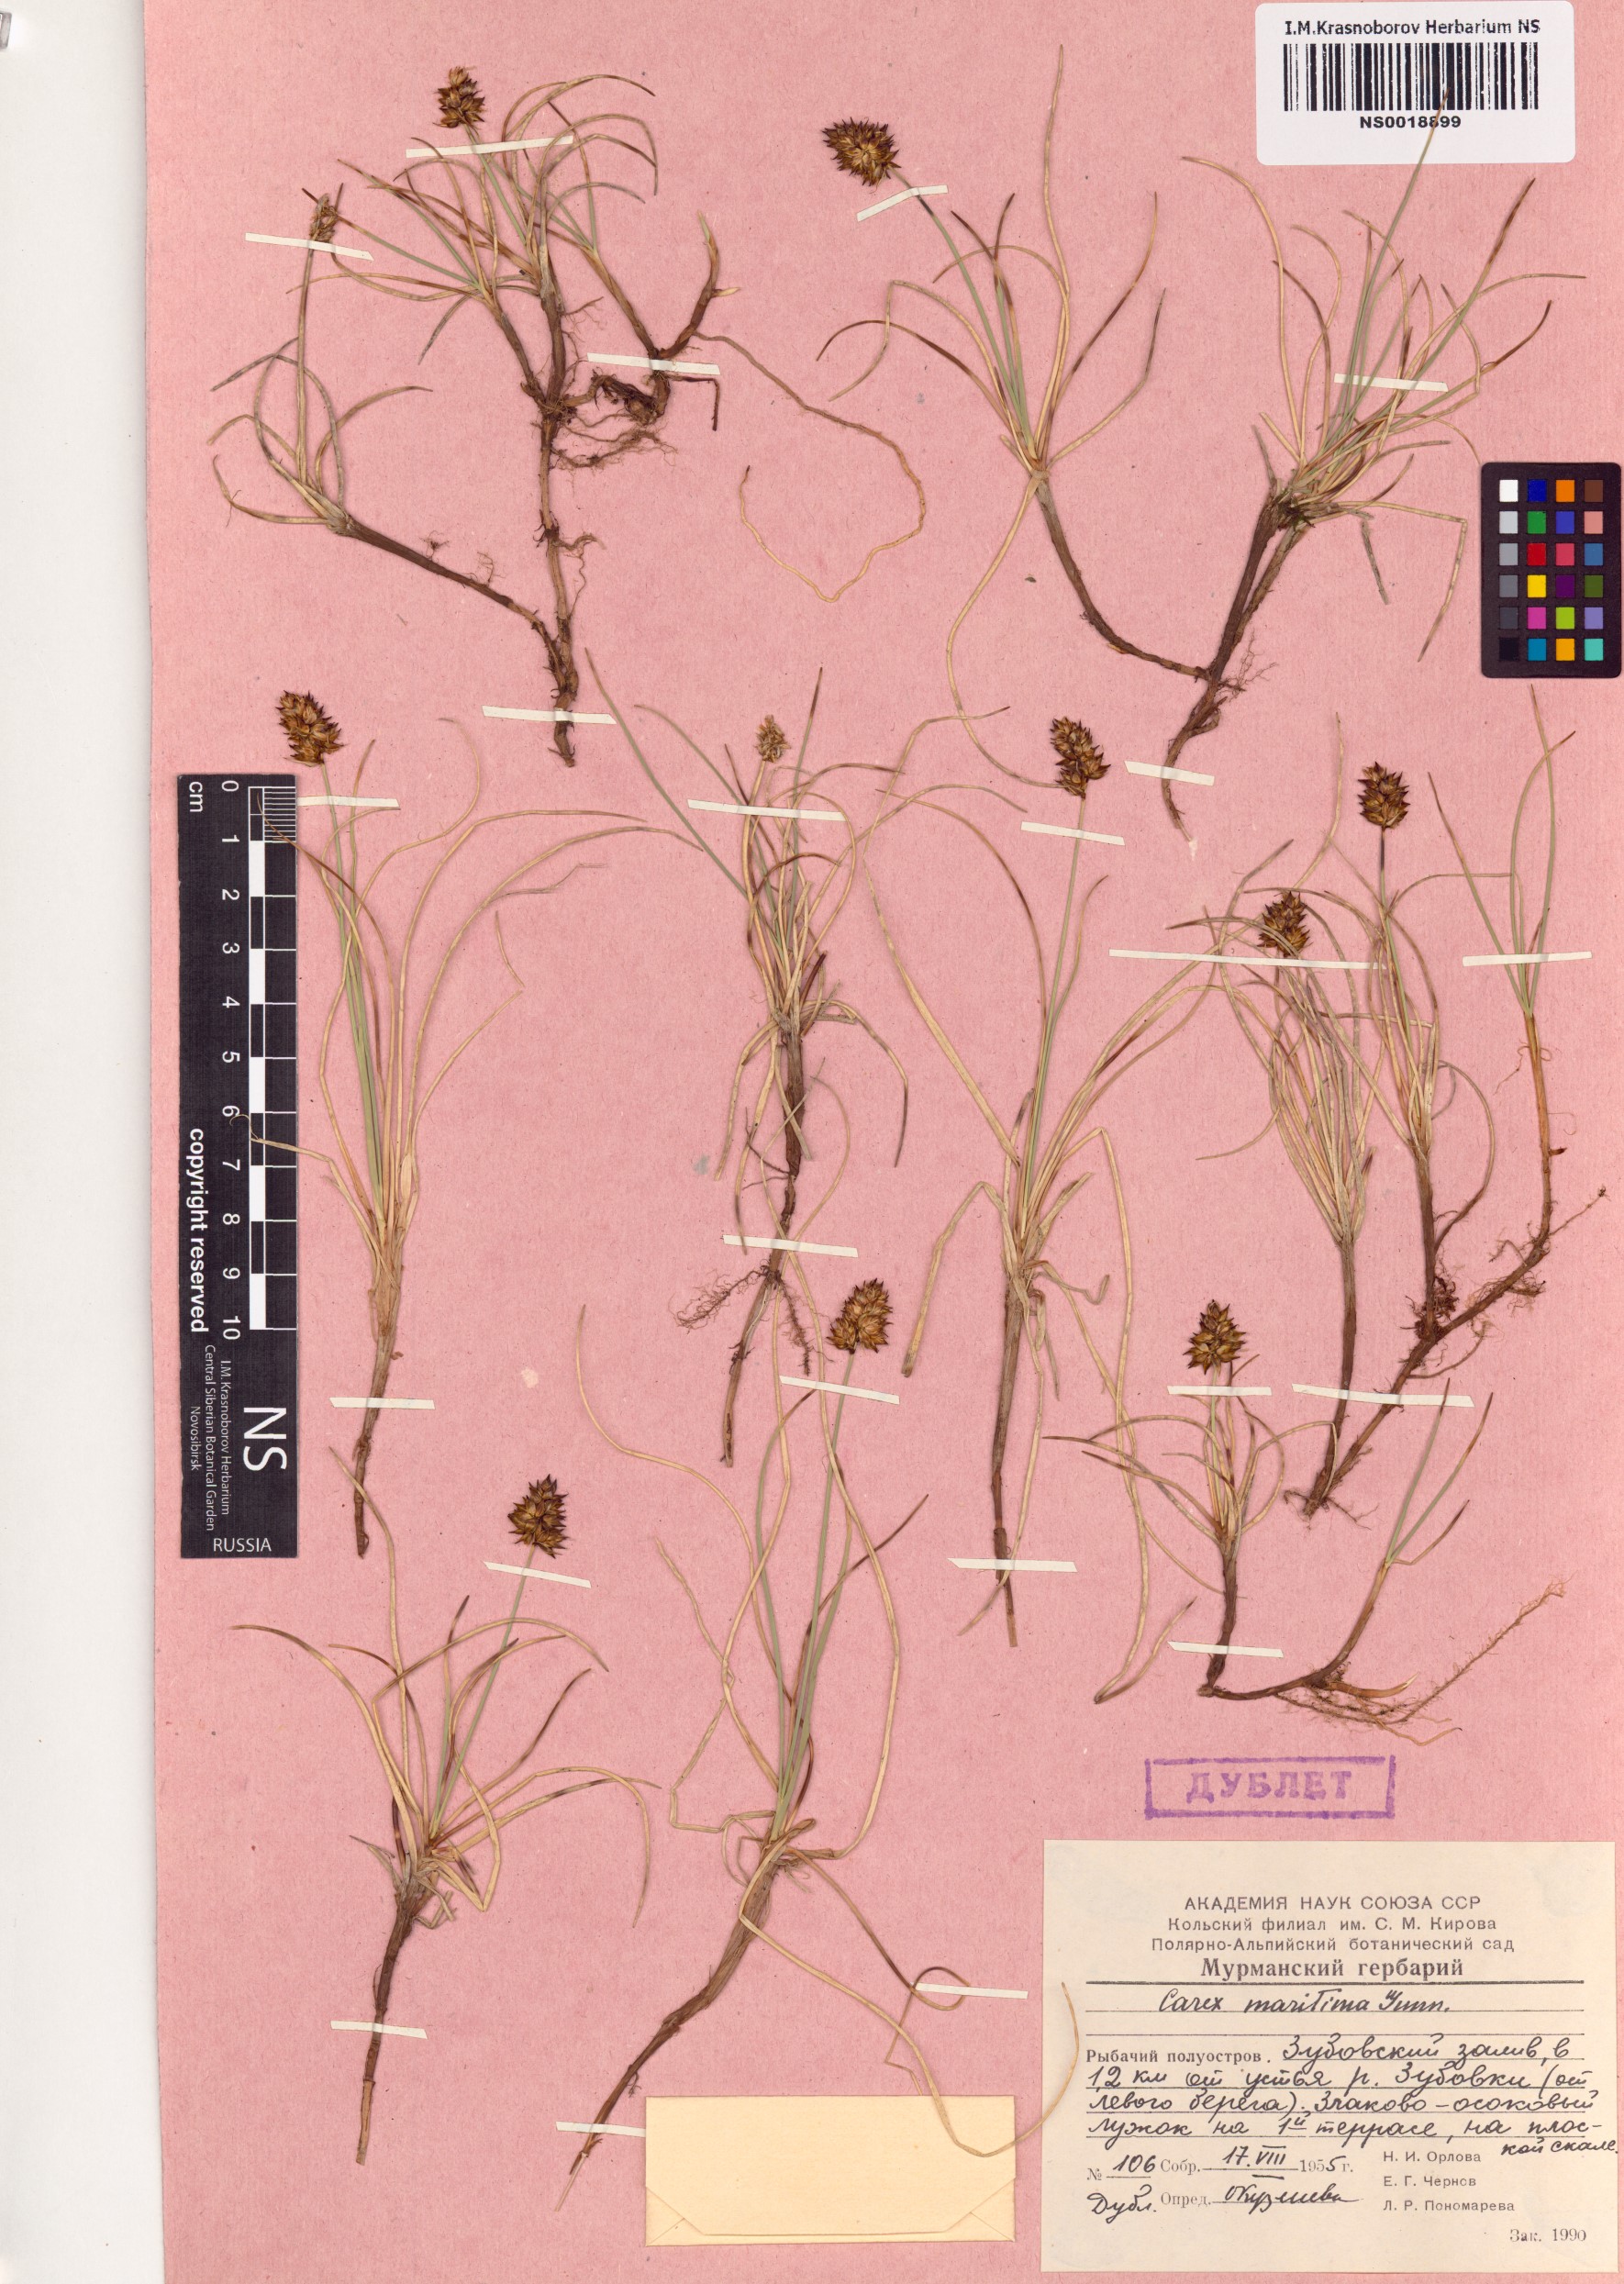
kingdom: Plantae
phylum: Tracheophyta
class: Liliopsida
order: Poales
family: Cyperaceae
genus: Carex
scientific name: Carex maritima
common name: Curved sedge
